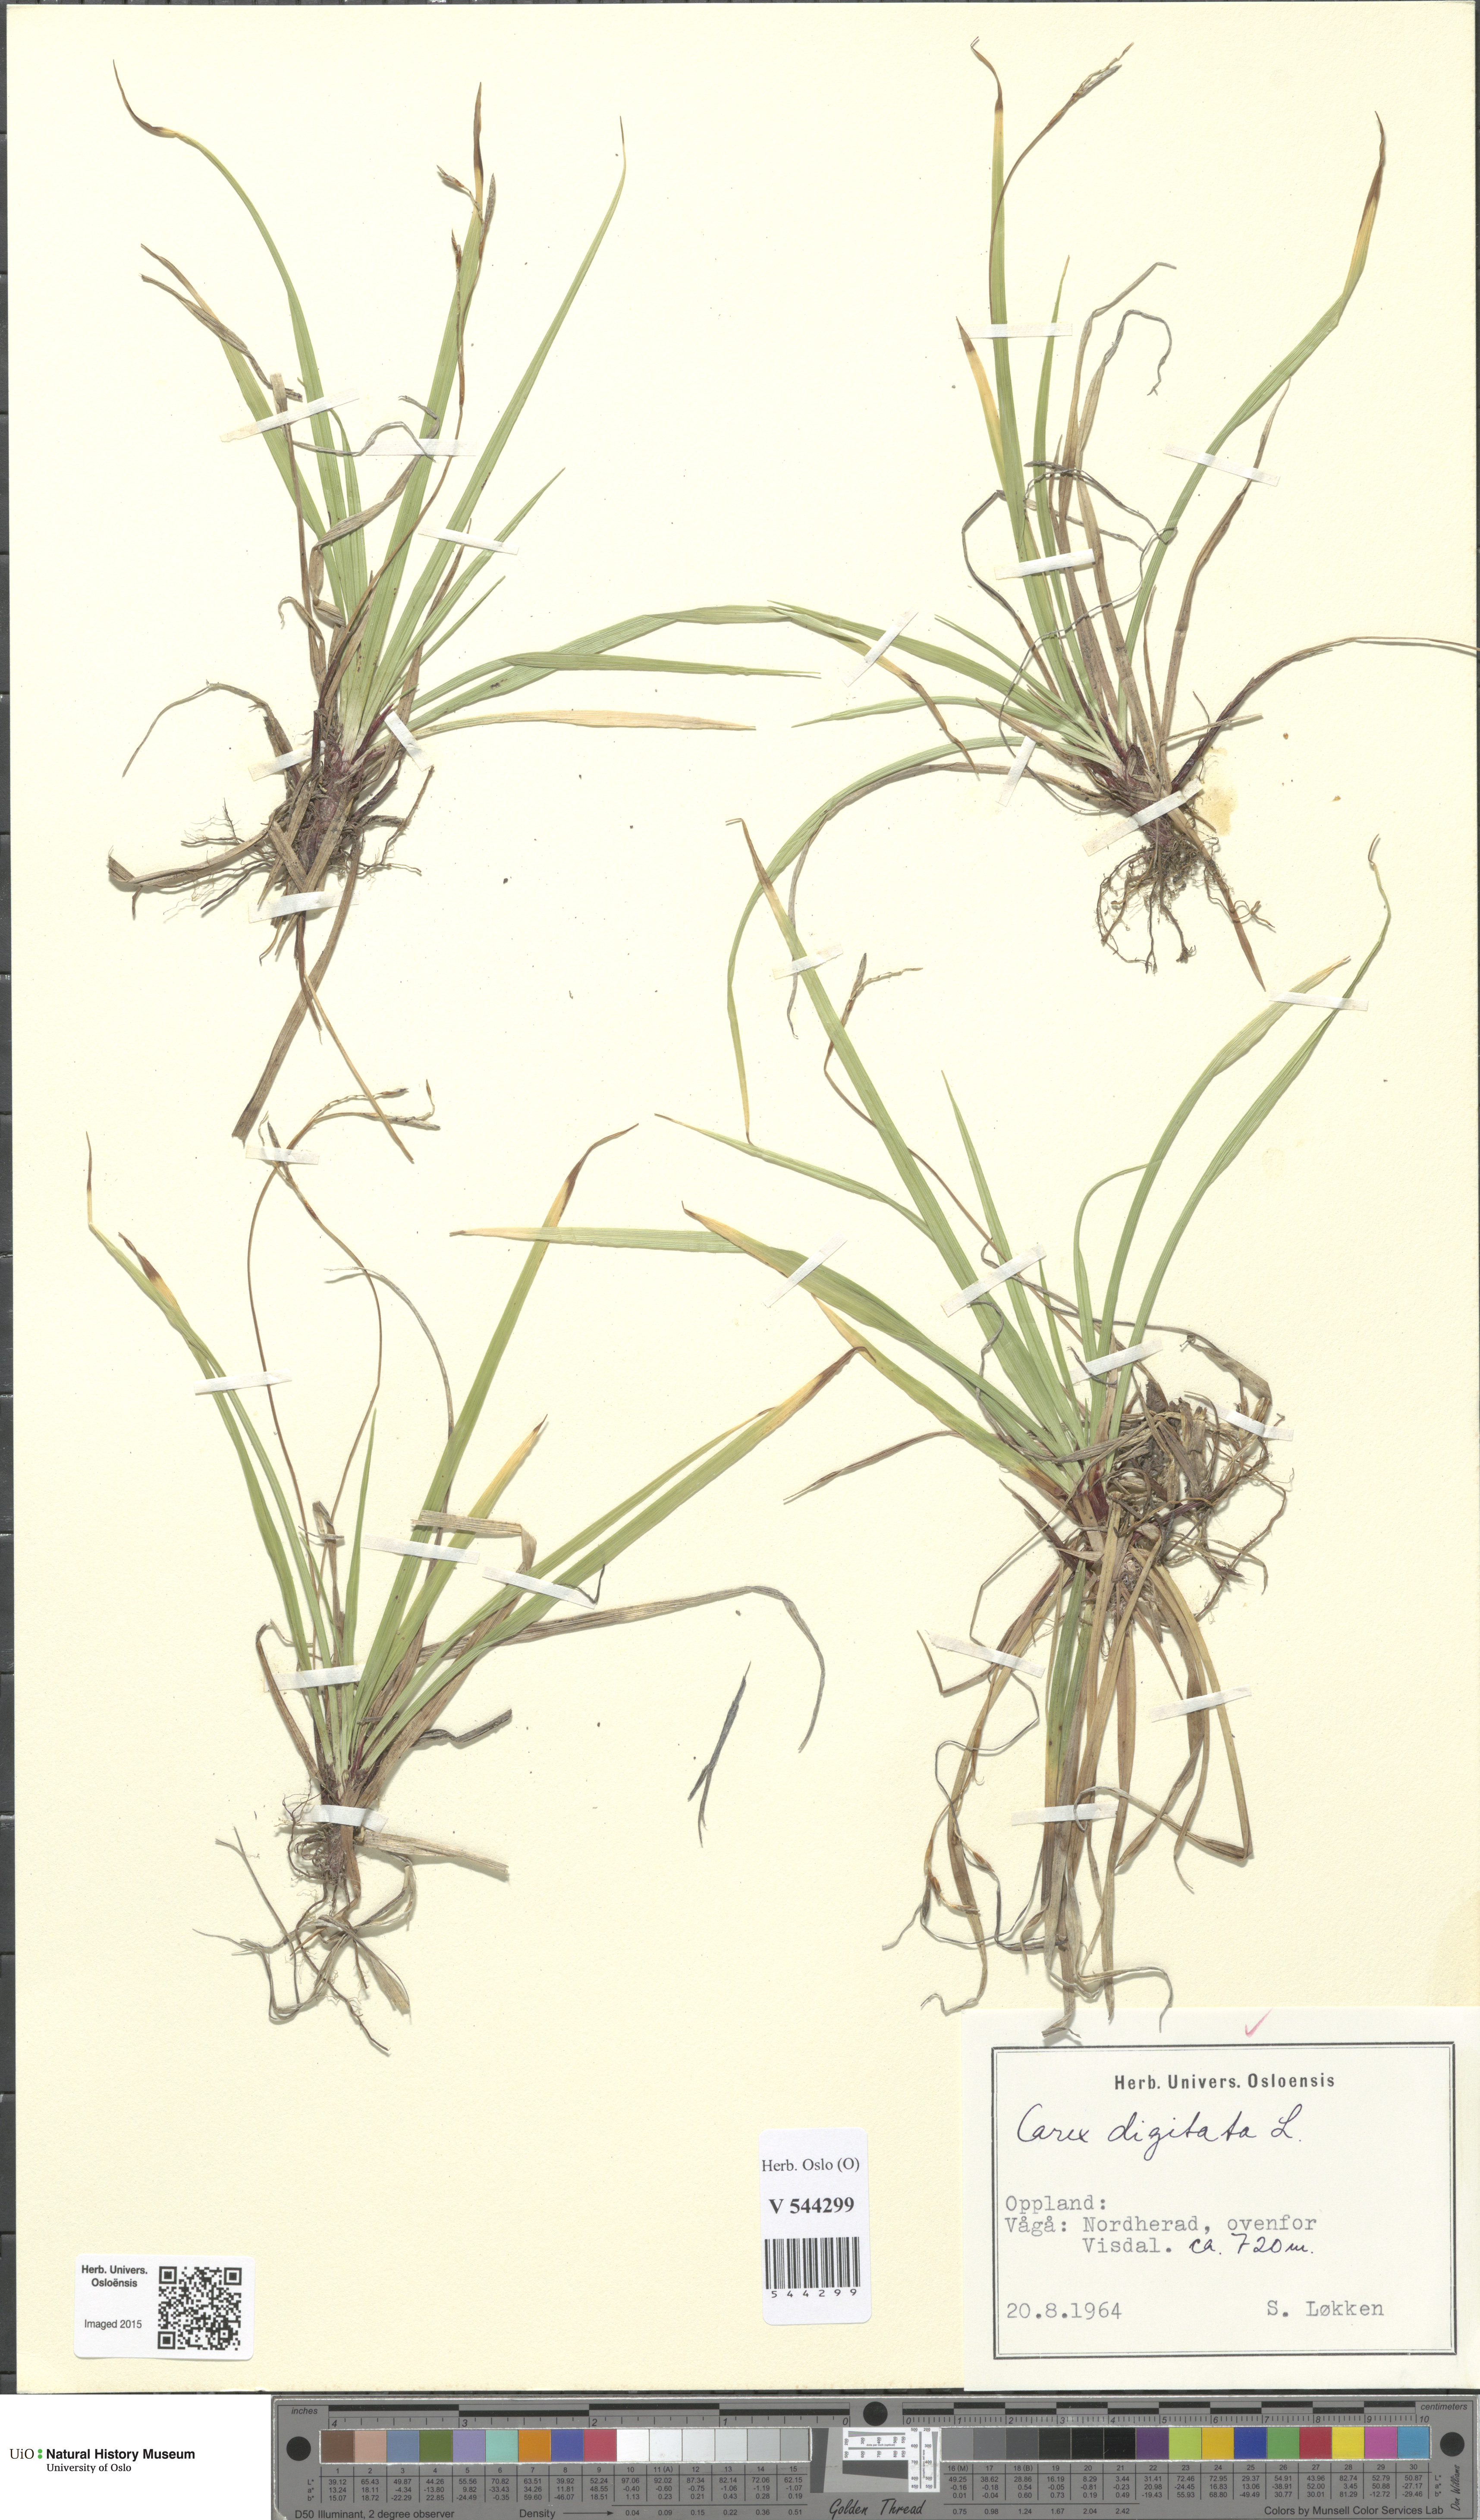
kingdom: Plantae
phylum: Tracheophyta
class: Liliopsida
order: Poales
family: Cyperaceae
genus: Carex
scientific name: Carex digitata
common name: Fingered sedge
